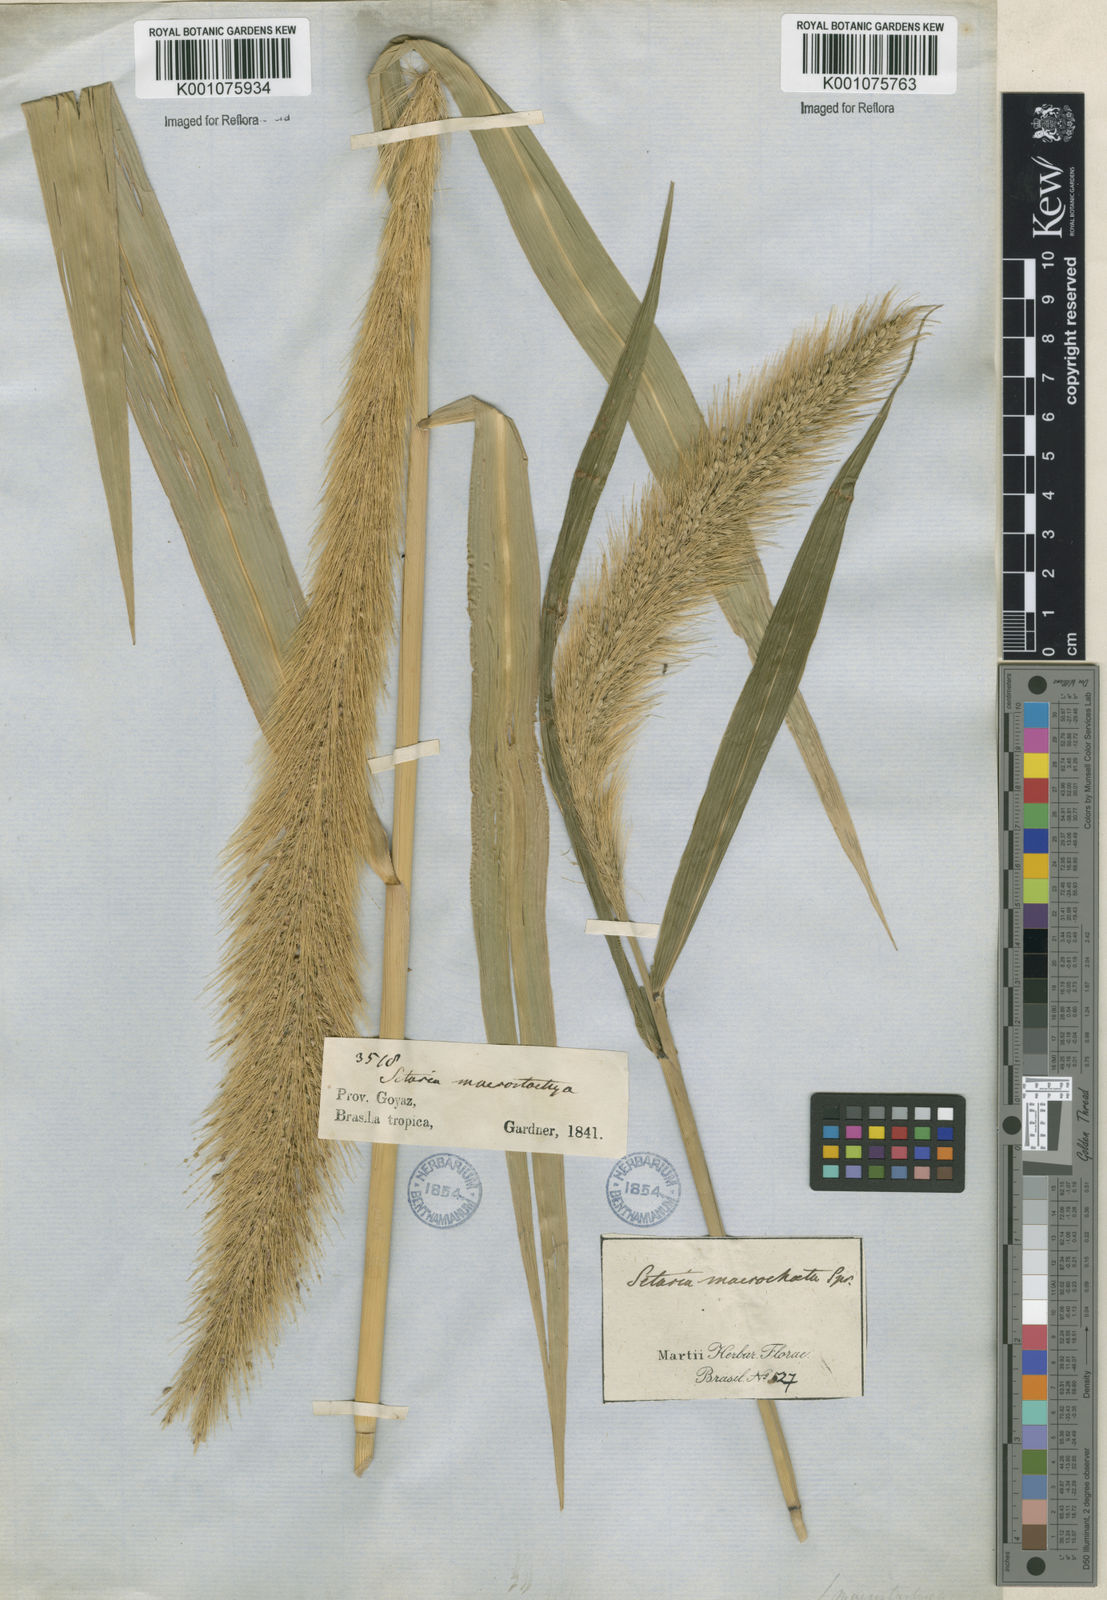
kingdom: Plantae
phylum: Tracheophyta
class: Liliopsida
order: Poales
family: Poaceae
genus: Setaria
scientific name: Setaria vulpiseta
